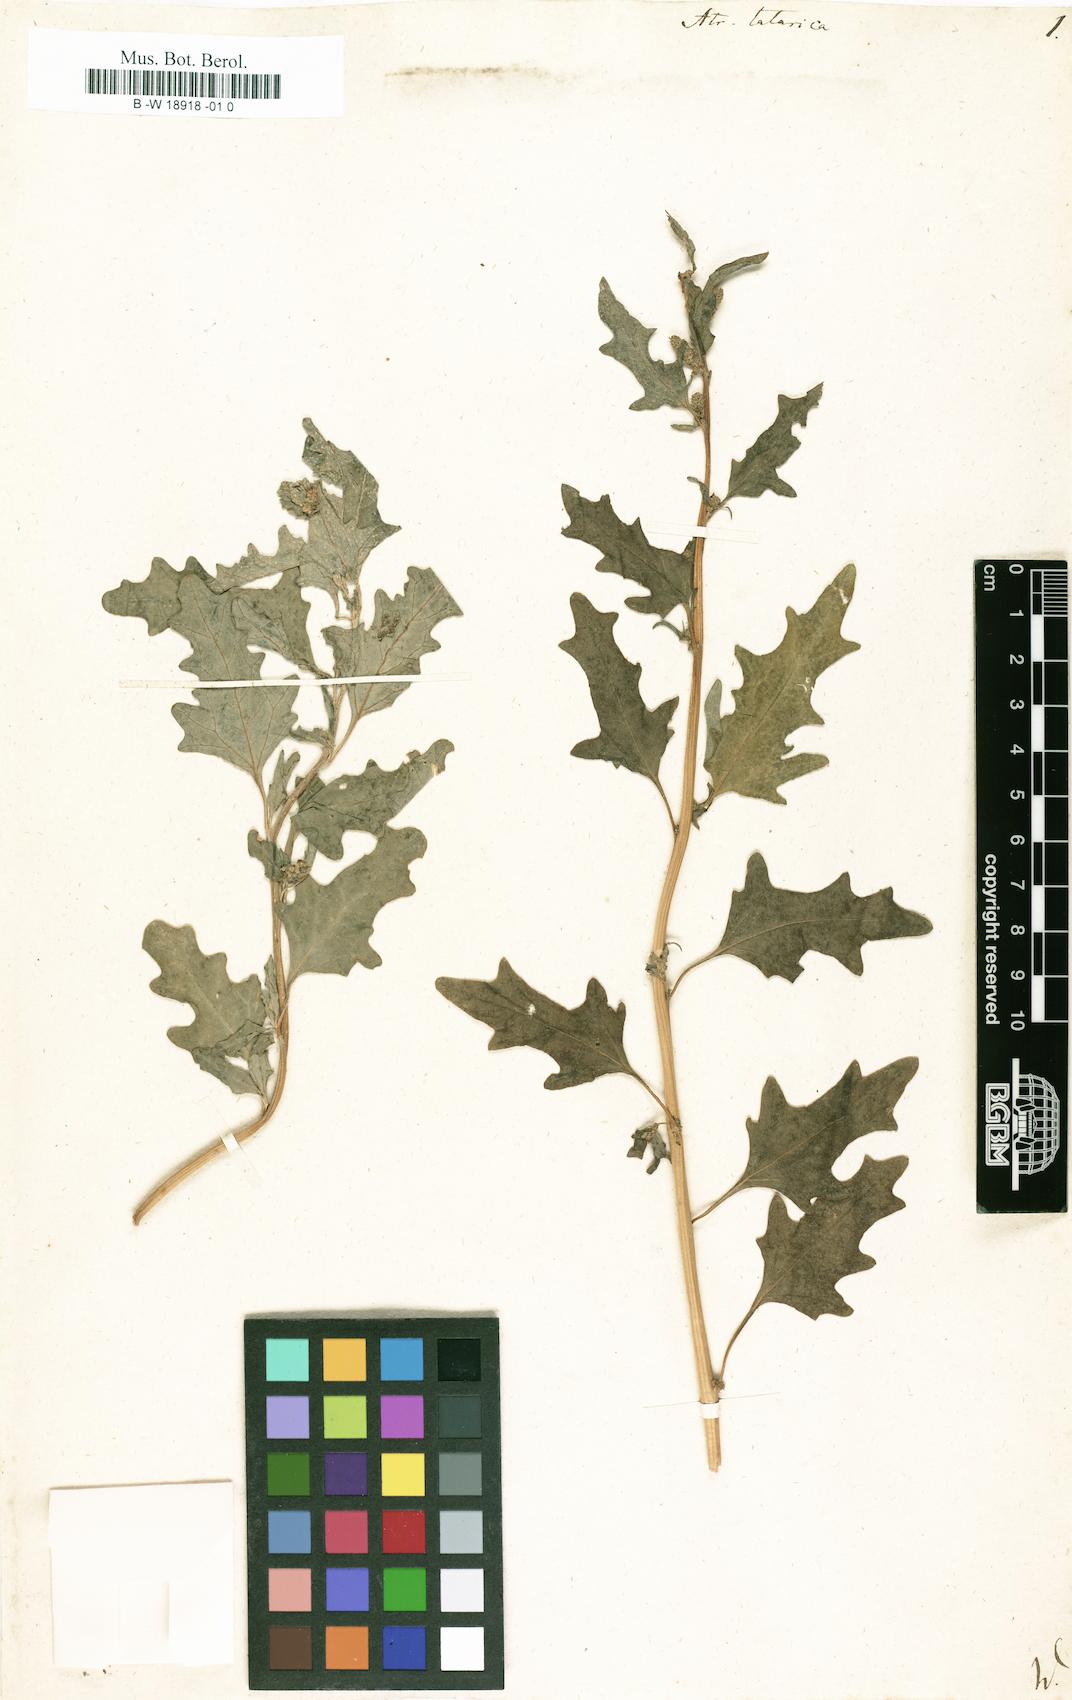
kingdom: Plantae
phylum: Tracheophyta
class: Magnoliopsida
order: Caryophyllales
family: Amaranthaceae
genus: Atriplex
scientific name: Atriplex tatarica
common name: Tatarian orache
